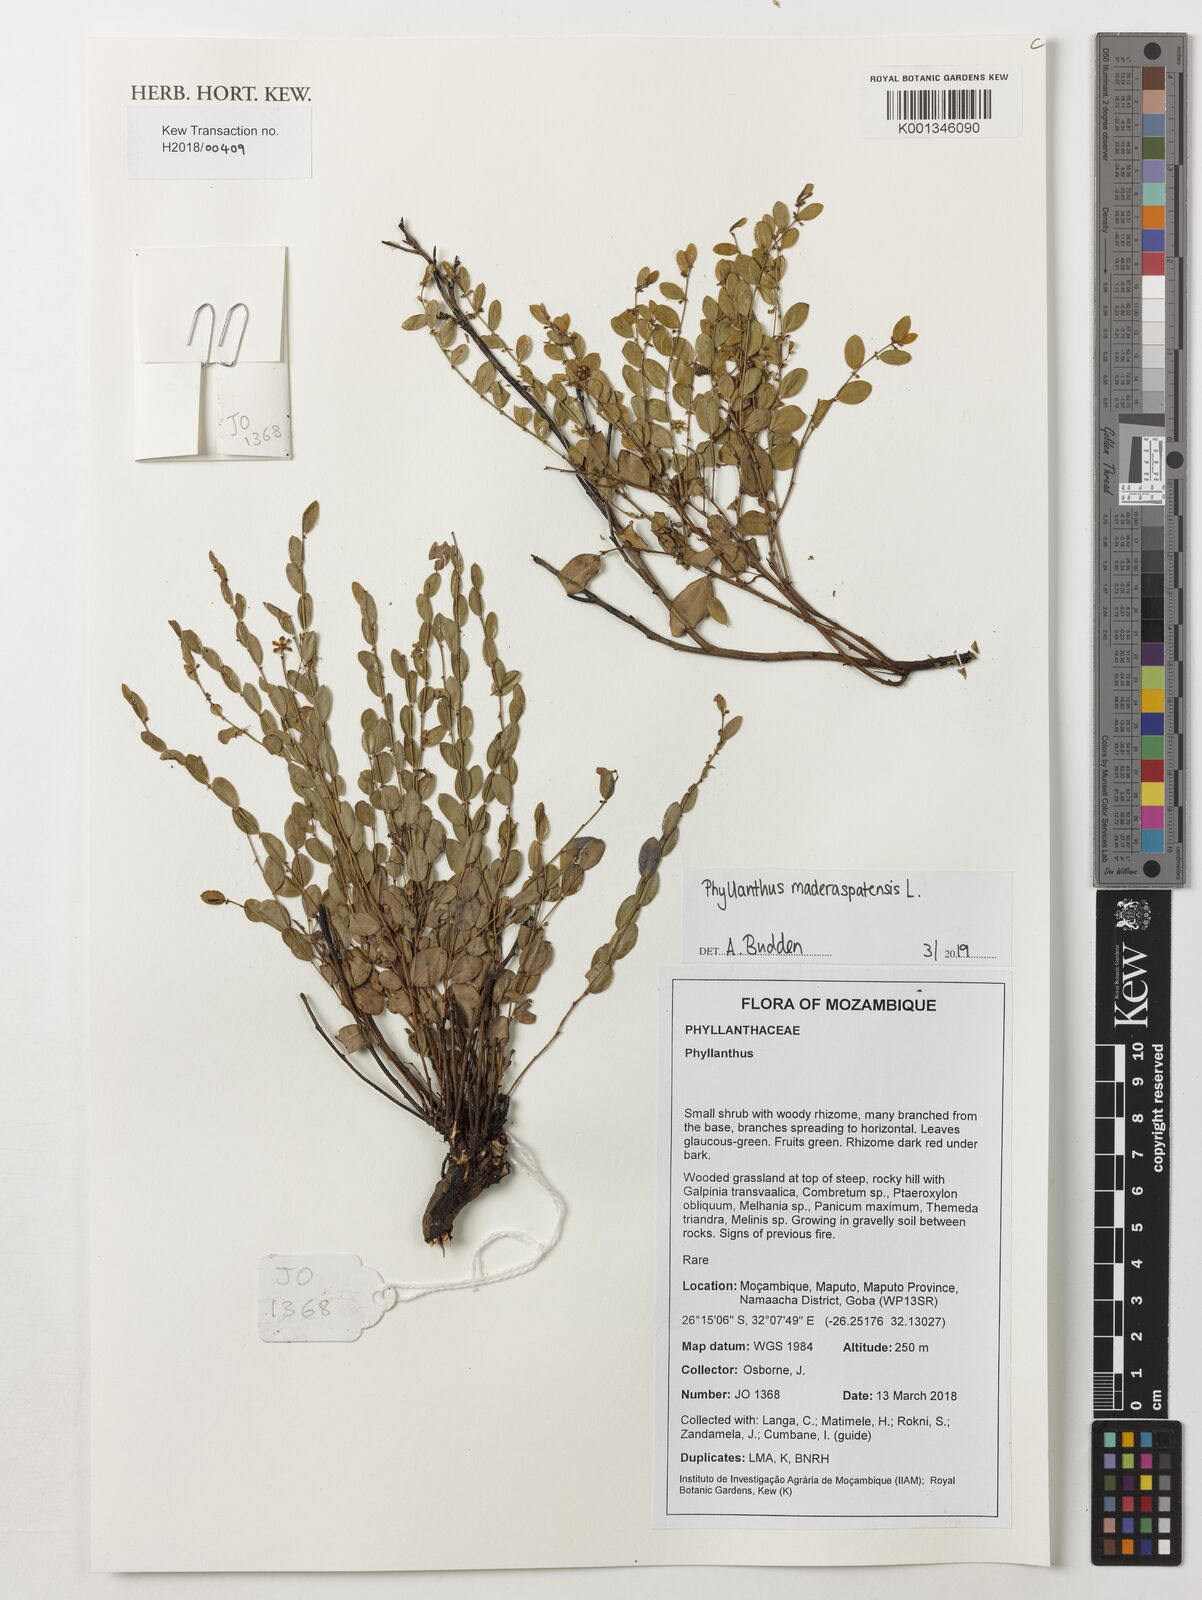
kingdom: Plantae
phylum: Tracheophyta
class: Magnoliopsida
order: Malpighiales
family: Phyllanthaceae
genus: Phyllanthus
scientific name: Phyllanthus
